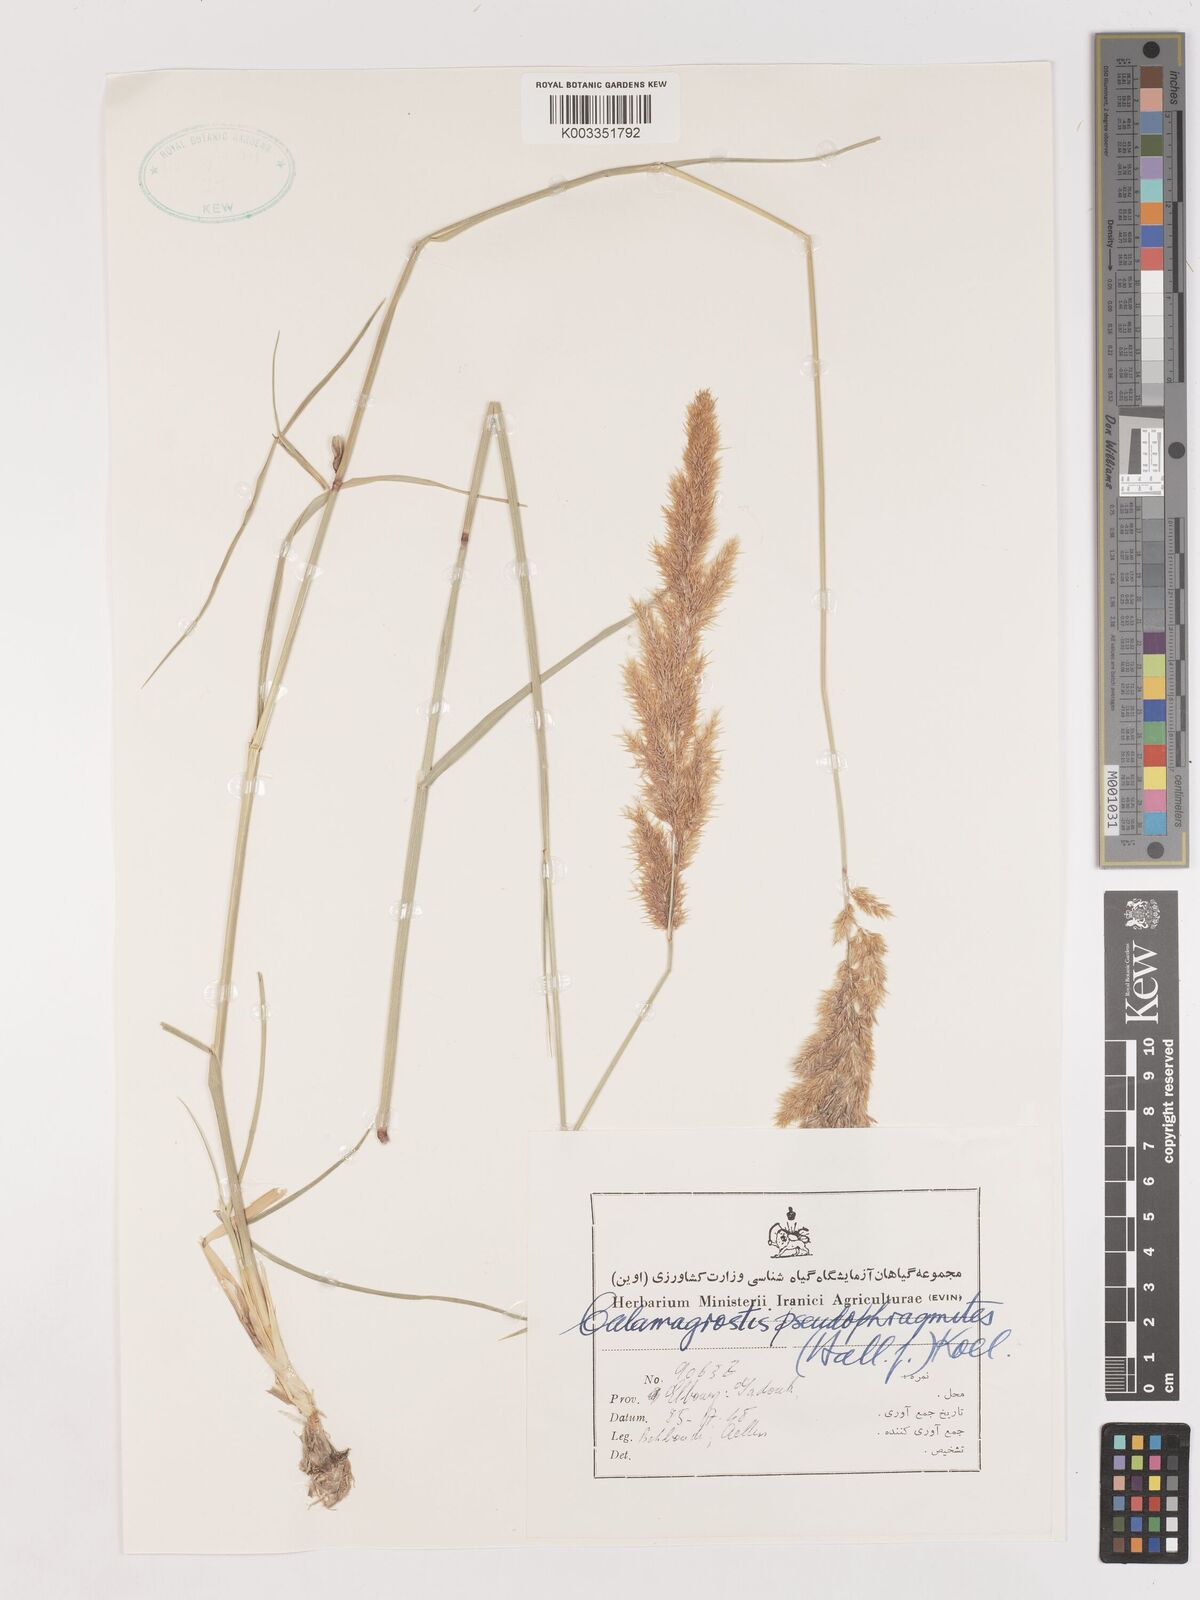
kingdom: Plantae
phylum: Tracheophyta
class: Liliopsida
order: Poales
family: Poaceae
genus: Calamagrostis
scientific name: Calamagrostis pseudophragmites
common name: Coastal small-reed
